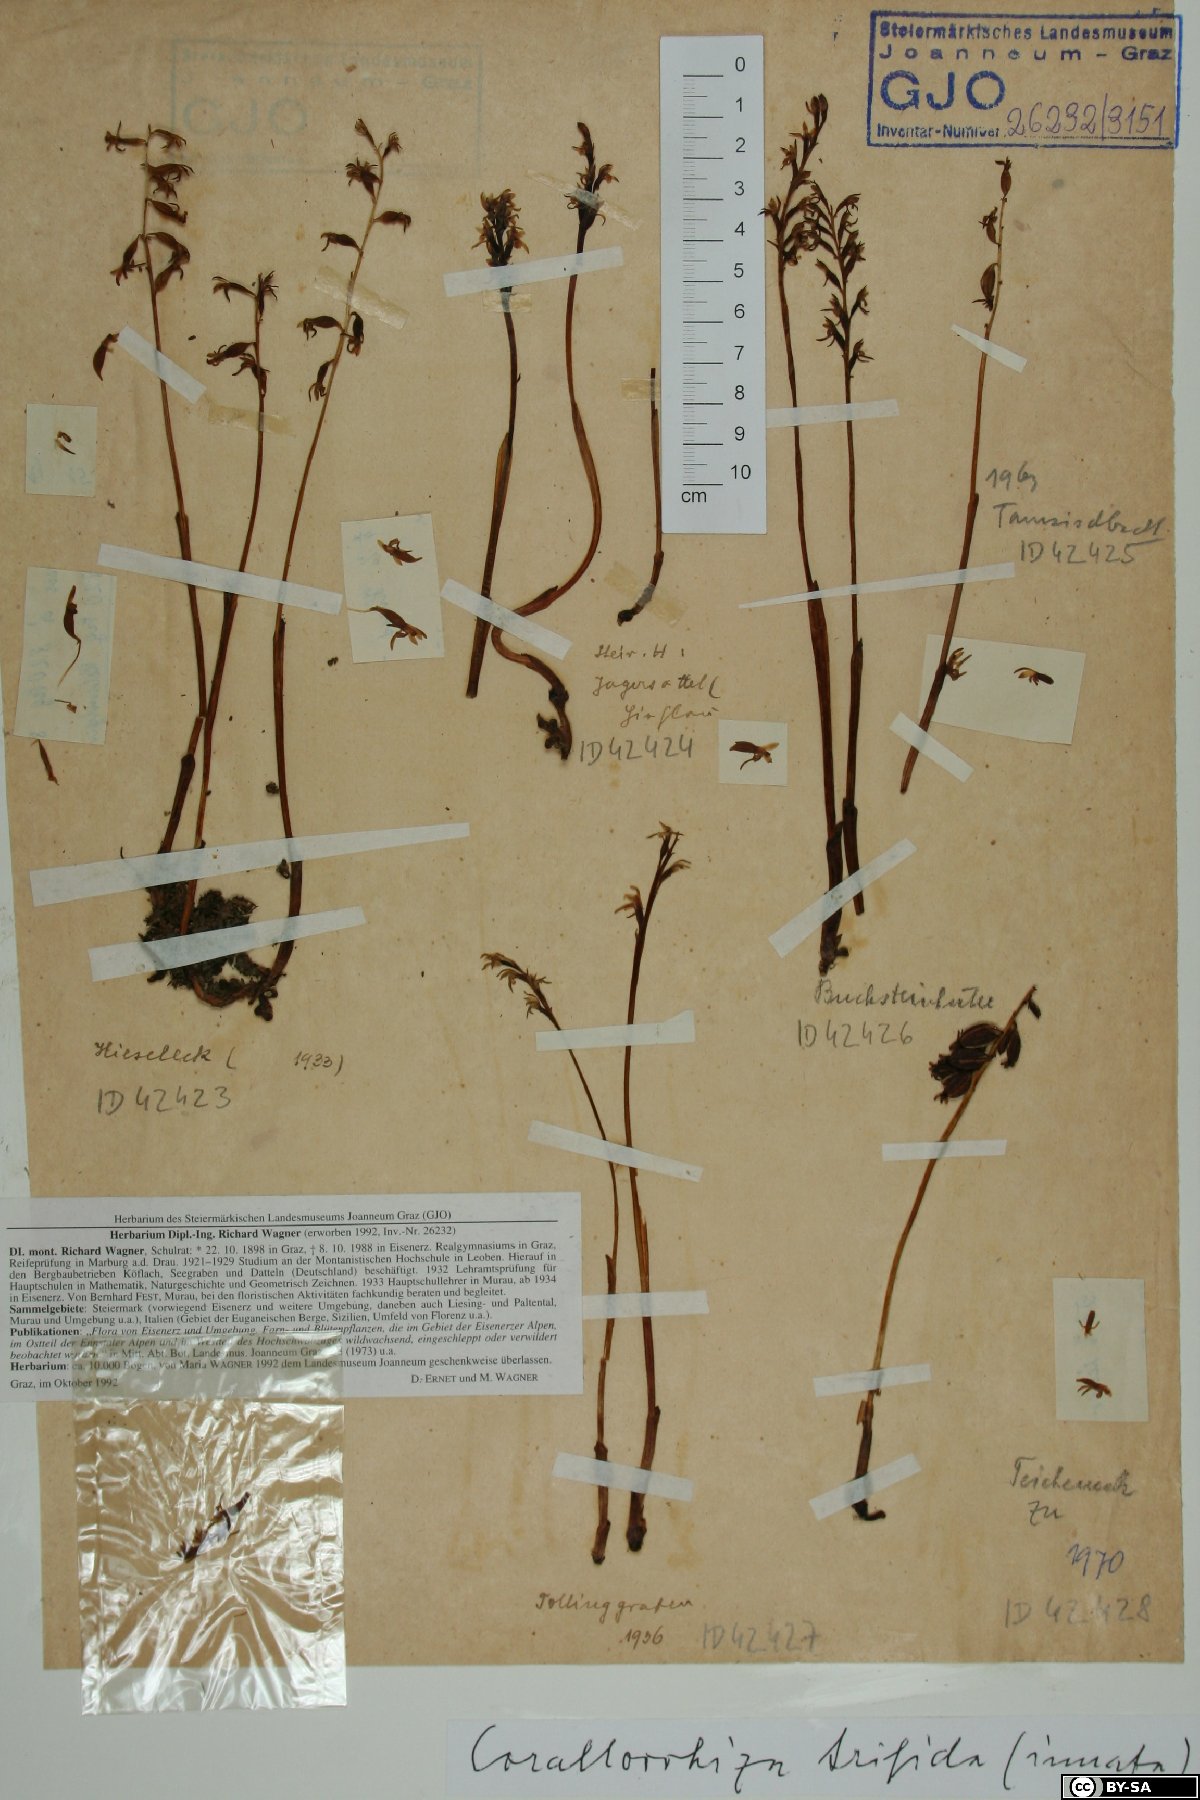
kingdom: Plantae
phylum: Tracheophyta
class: Liliopsida
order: Asparagales
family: Orchidaceae
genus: Corallorhiza
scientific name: Corallorhiza trifida
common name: Yellow coralroot
